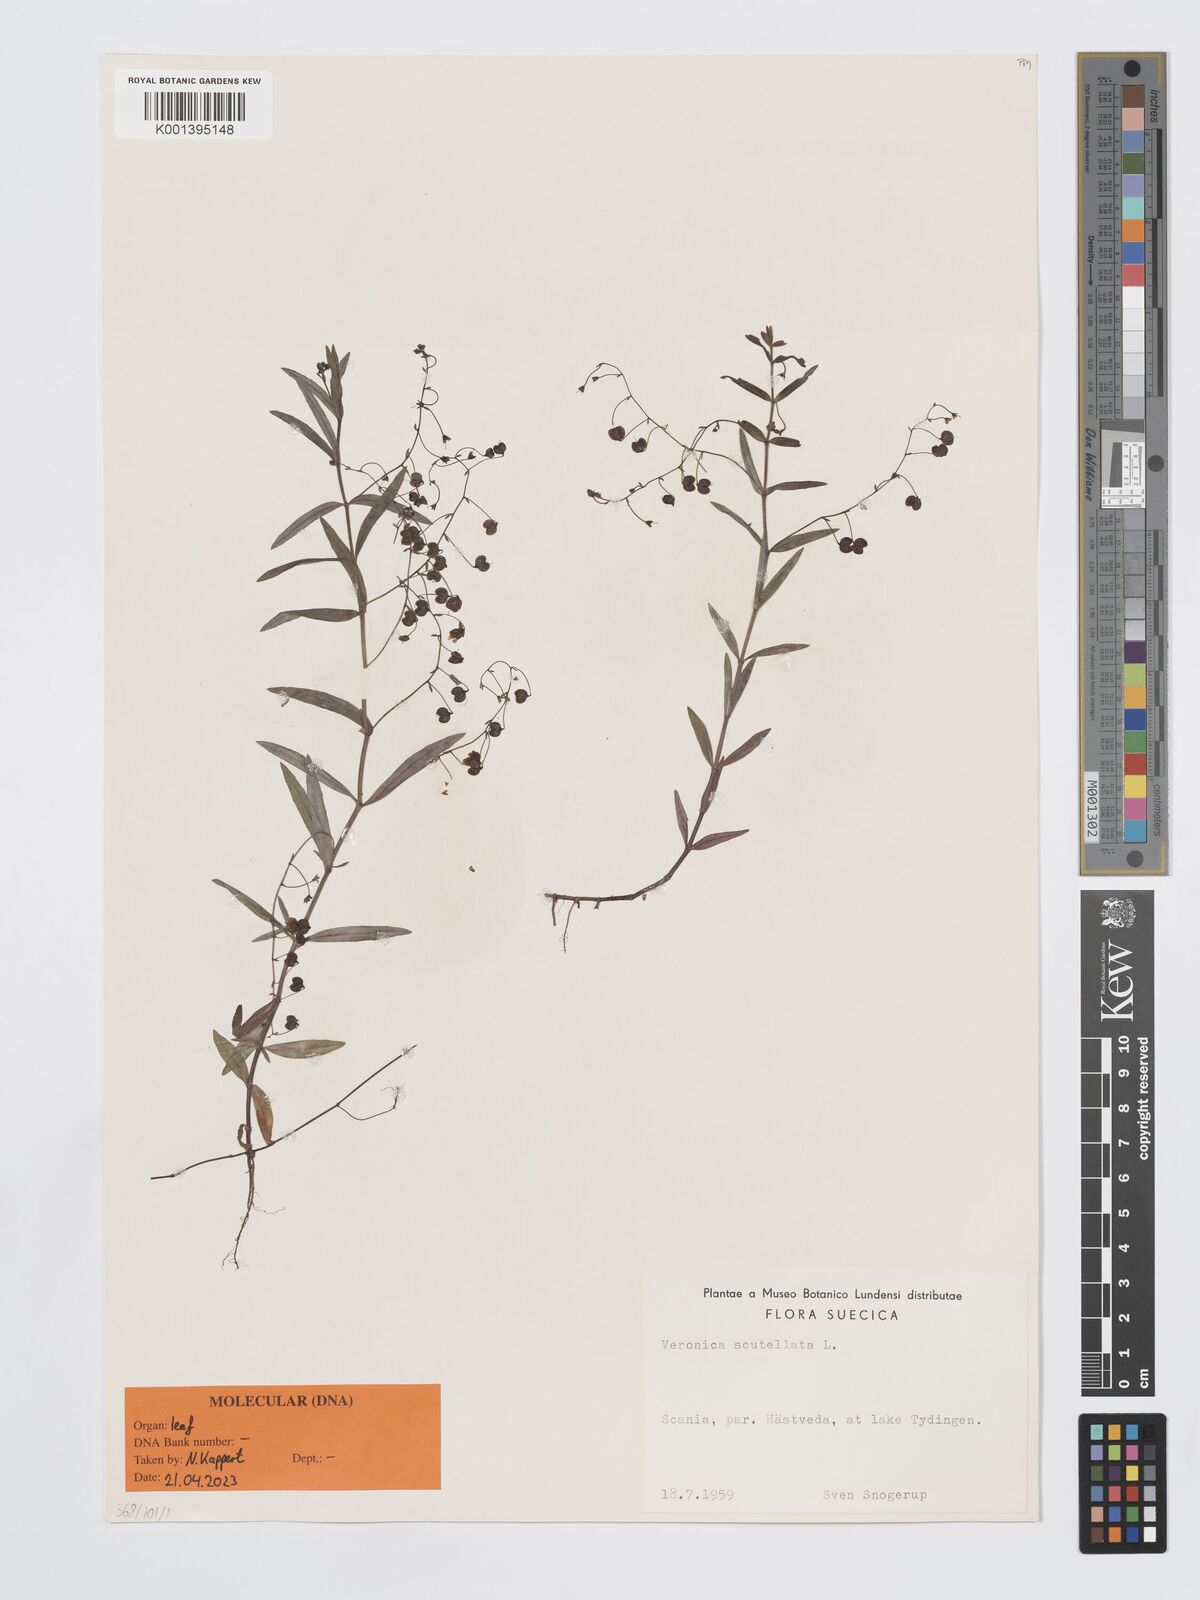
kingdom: Plantae
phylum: Tracheophyta
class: Magnoliopsida
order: Lamiales
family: Plantaginaceae
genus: Veronica
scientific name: Veronica scutellata
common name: Marsh speedwell
